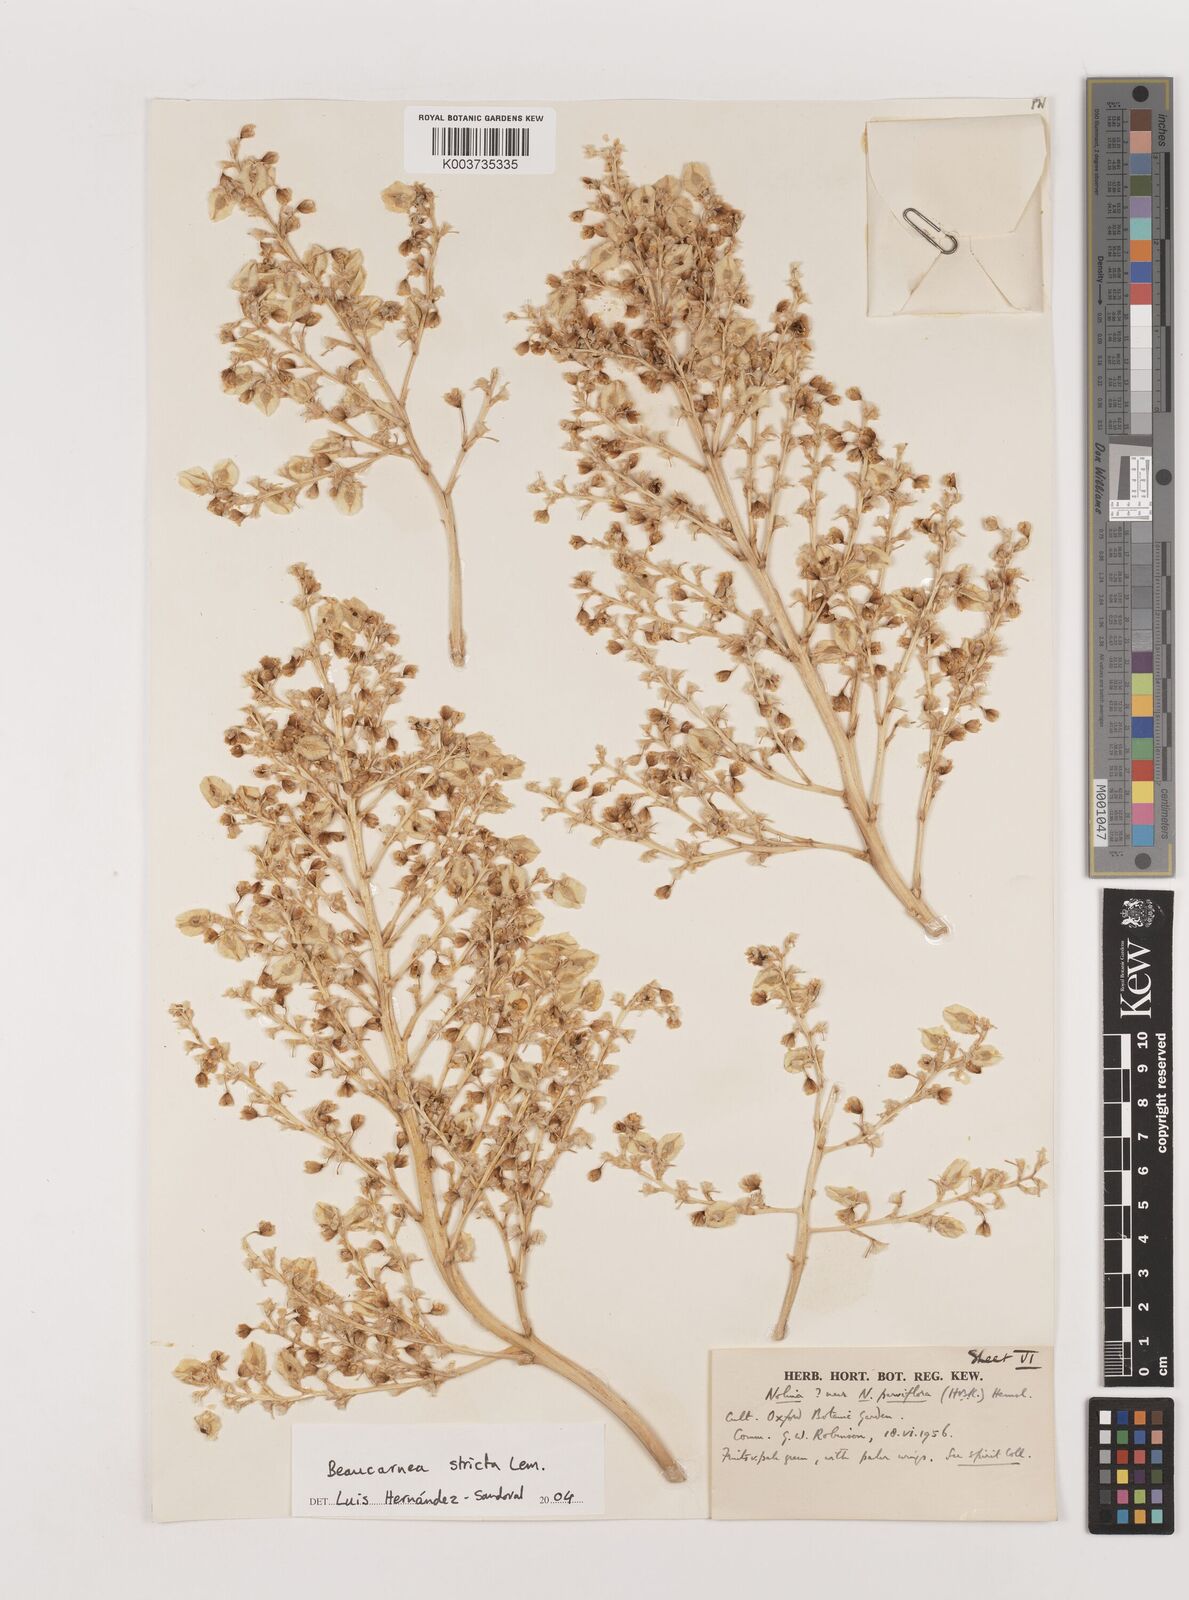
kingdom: Plantae
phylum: Tracheophyta
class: Liliopsida
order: Asparagales
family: Asparagaceae
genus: Beaucarnea
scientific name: Beaucarnea stricta
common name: Bottle palm
